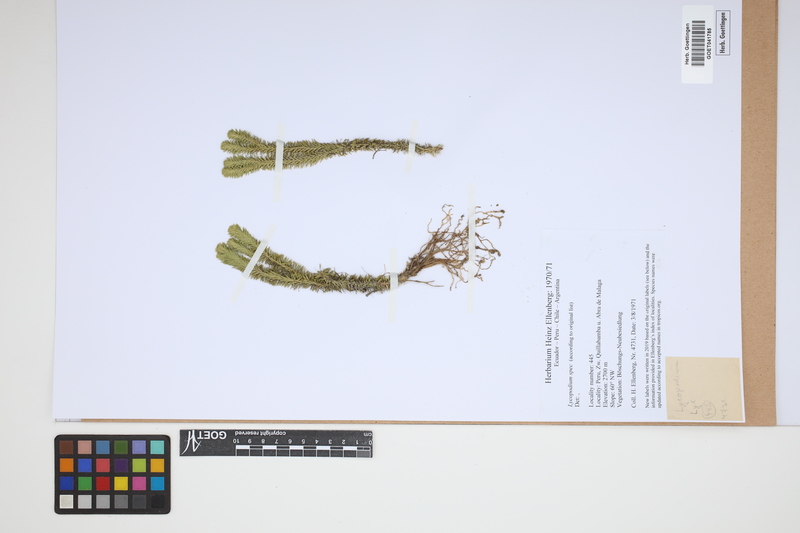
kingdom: Plantae
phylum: Tracheophyta
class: Lycopodiopsida
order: Lycopodiales
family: Lycopodiaceae
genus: Lycopodium
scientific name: Lycopodium
